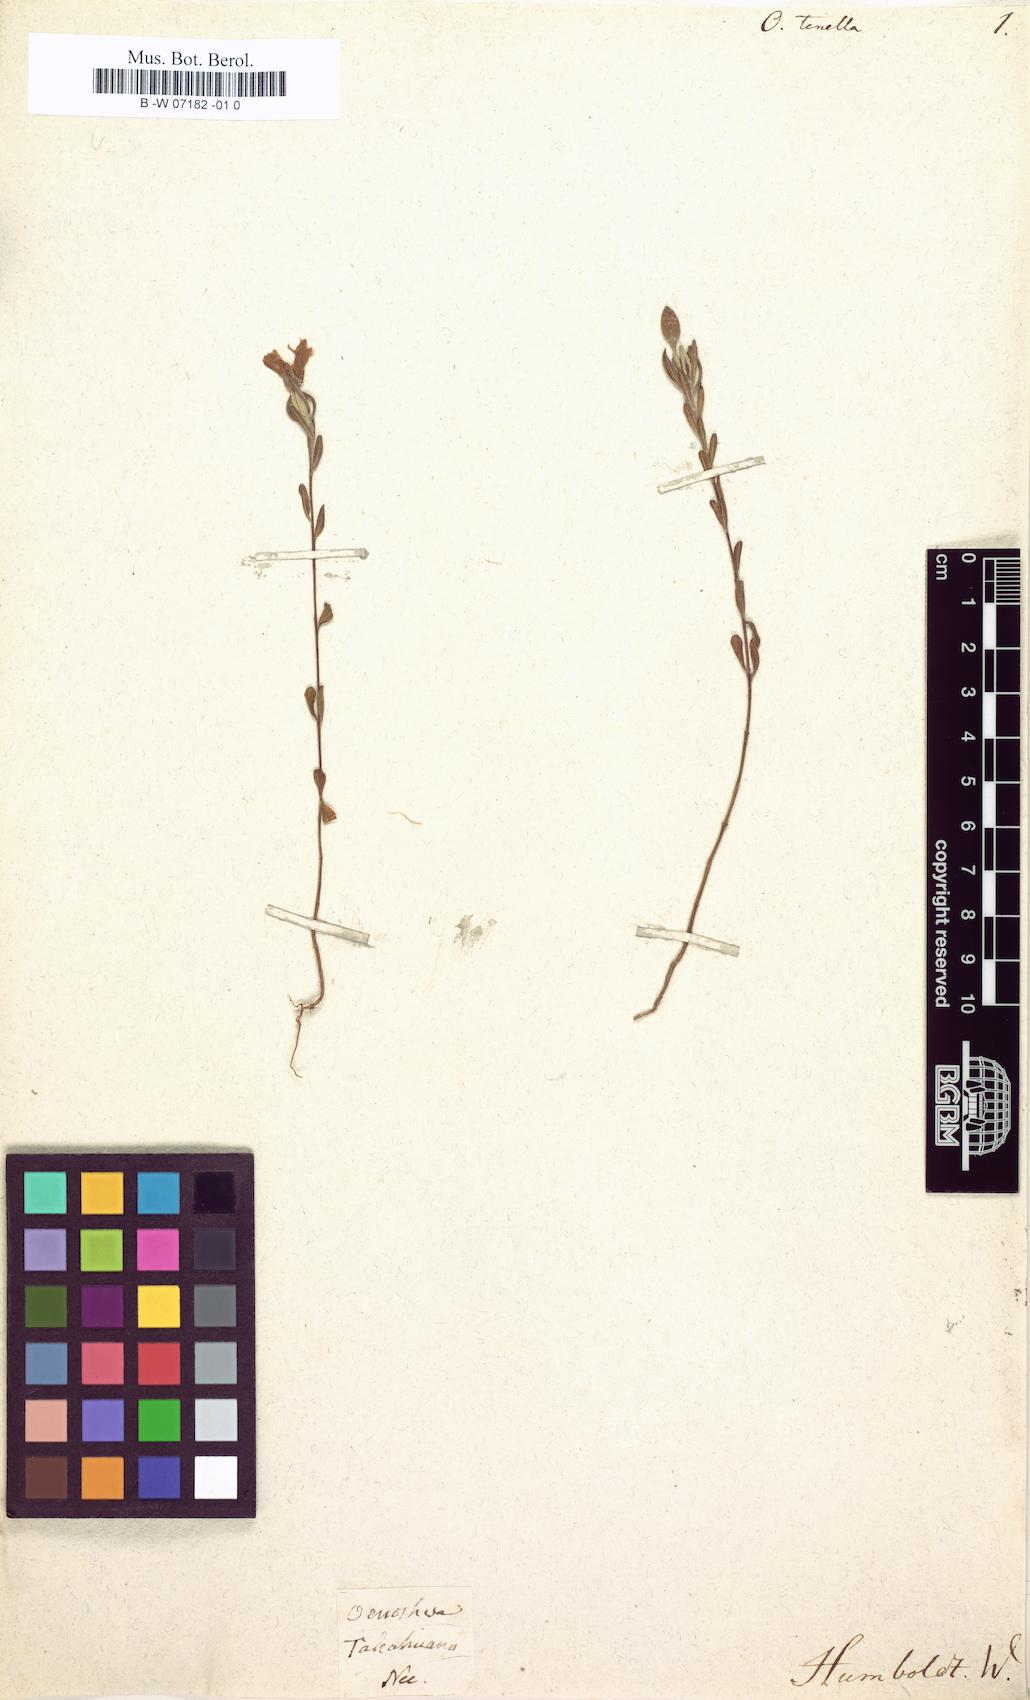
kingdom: Plantae
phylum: Tracheophyta
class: Magnoliopsida
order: Myrtales
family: Onagraceae
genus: Oenothera
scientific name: Oenothera tenella
